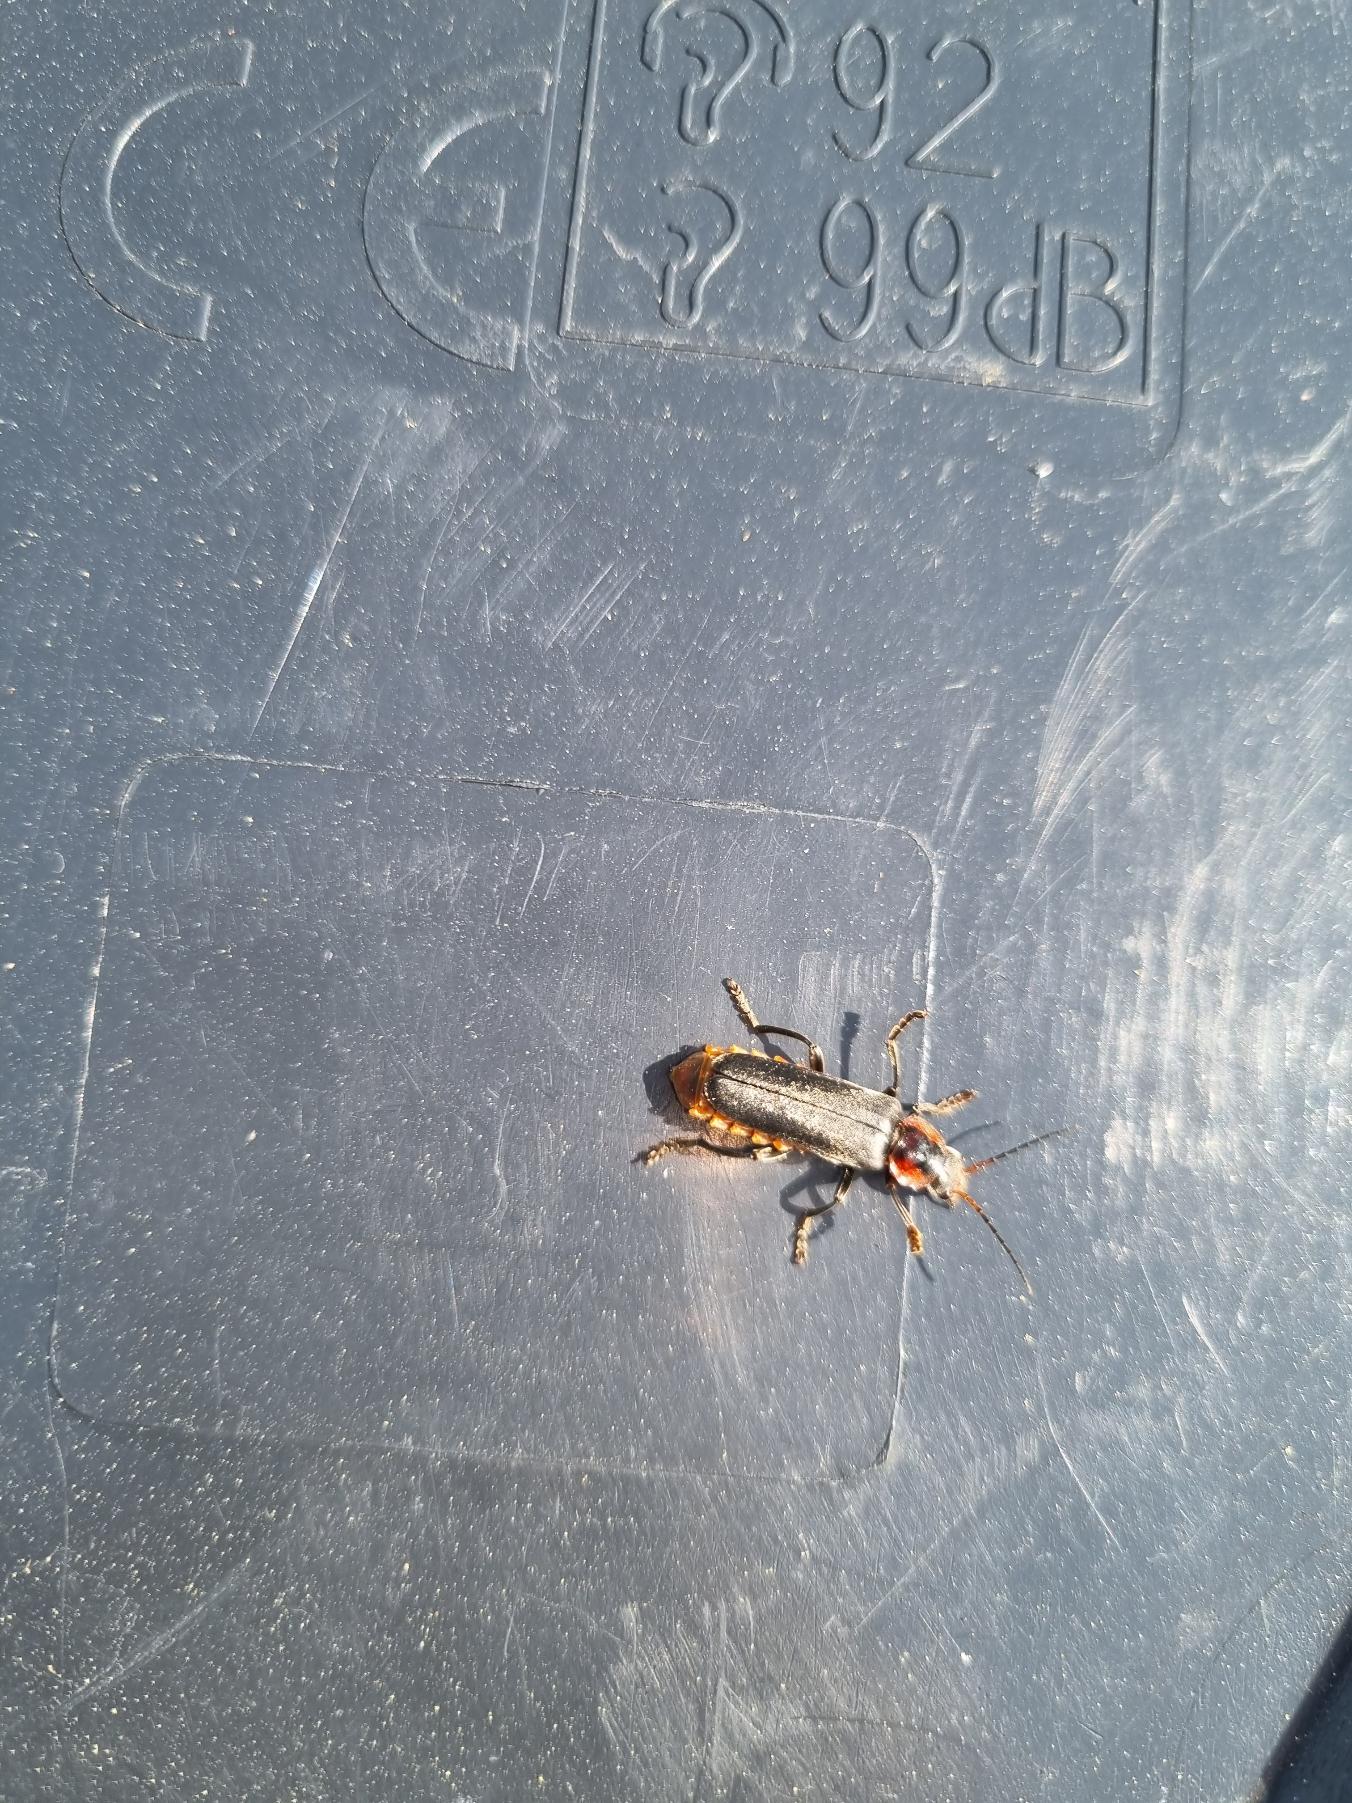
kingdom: Animalia
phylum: Arthropoda
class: Insecta
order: Coleoptera
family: Cantharidae
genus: Cantharis
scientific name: Cantharis fusca
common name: Stor blødvinge
